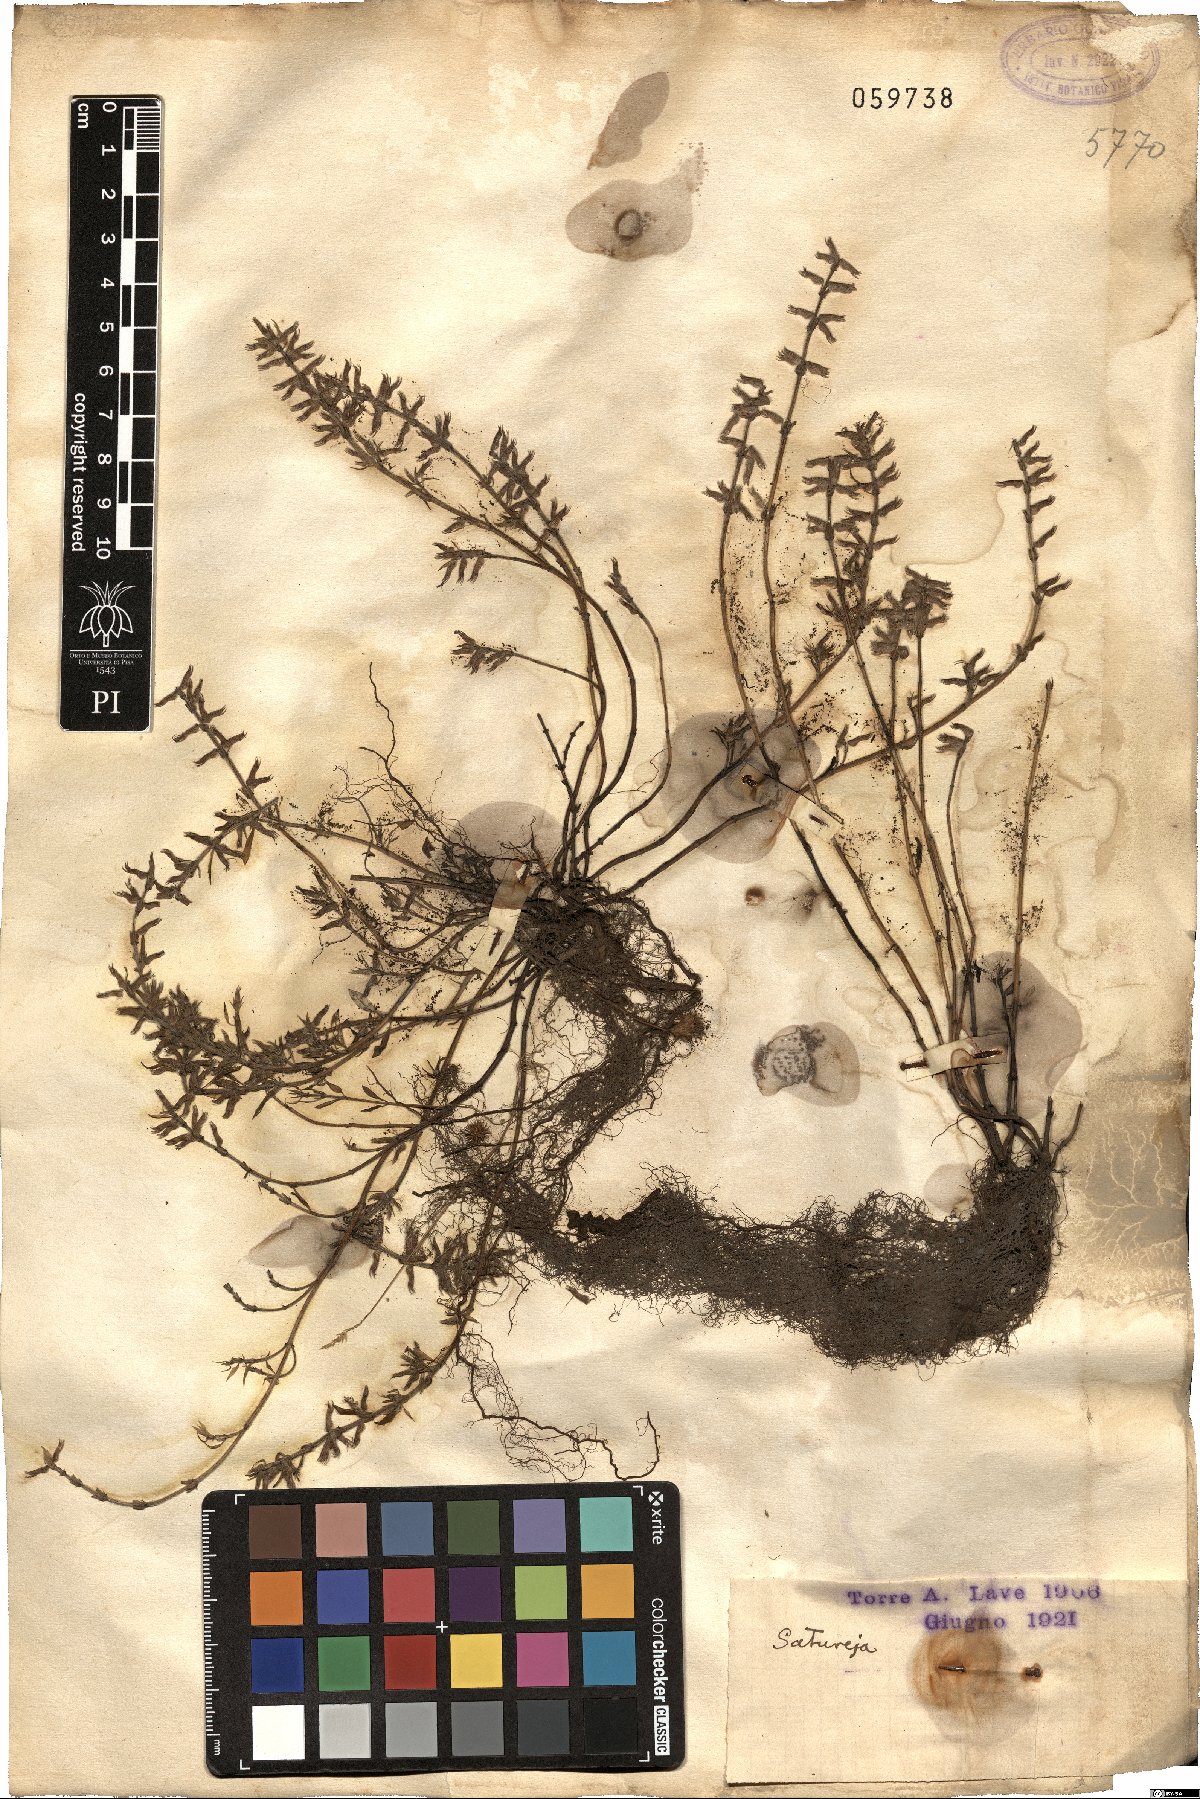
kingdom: Plantae
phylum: Tracheophyta
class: Magnoliopsida
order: Lamiales
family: Lamiaceae
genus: Satureja
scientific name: Satureja
